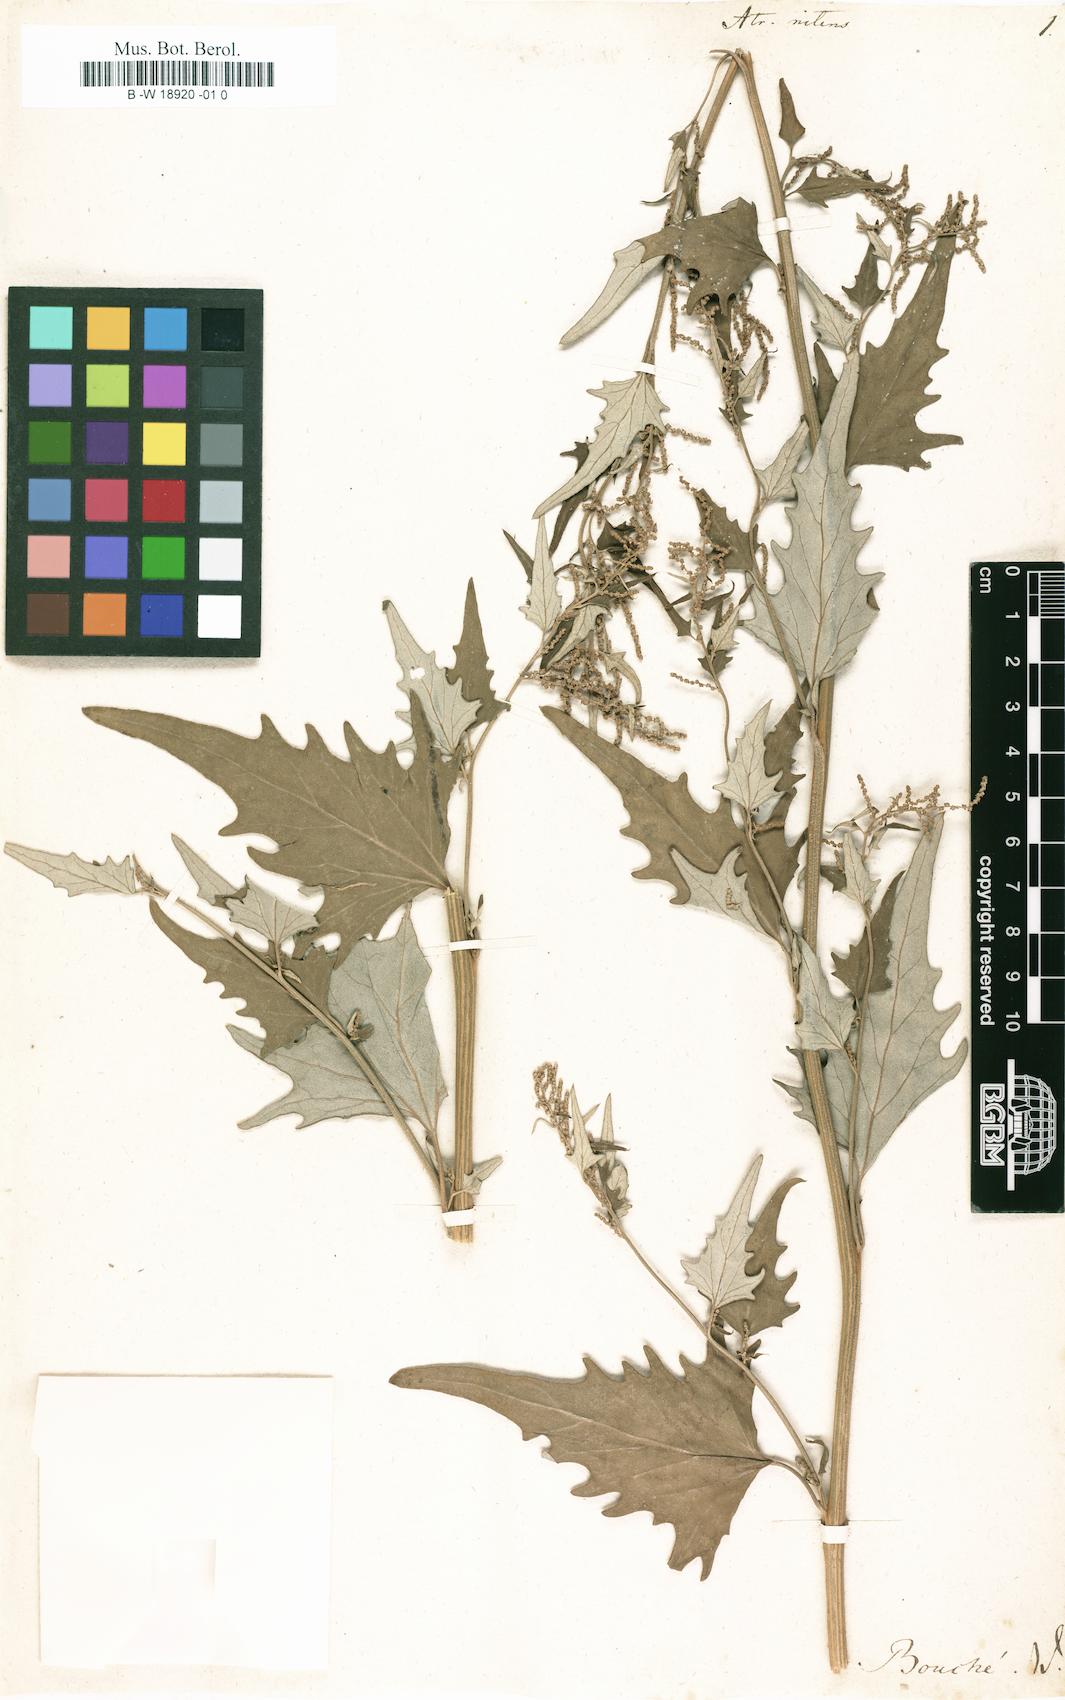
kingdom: Plantae
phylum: Tracheophyta
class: Magnoliopsida
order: Caryophyllales
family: Amaranthaceae
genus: Atriplex
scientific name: Atriplex sagittata
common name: Purple orache
